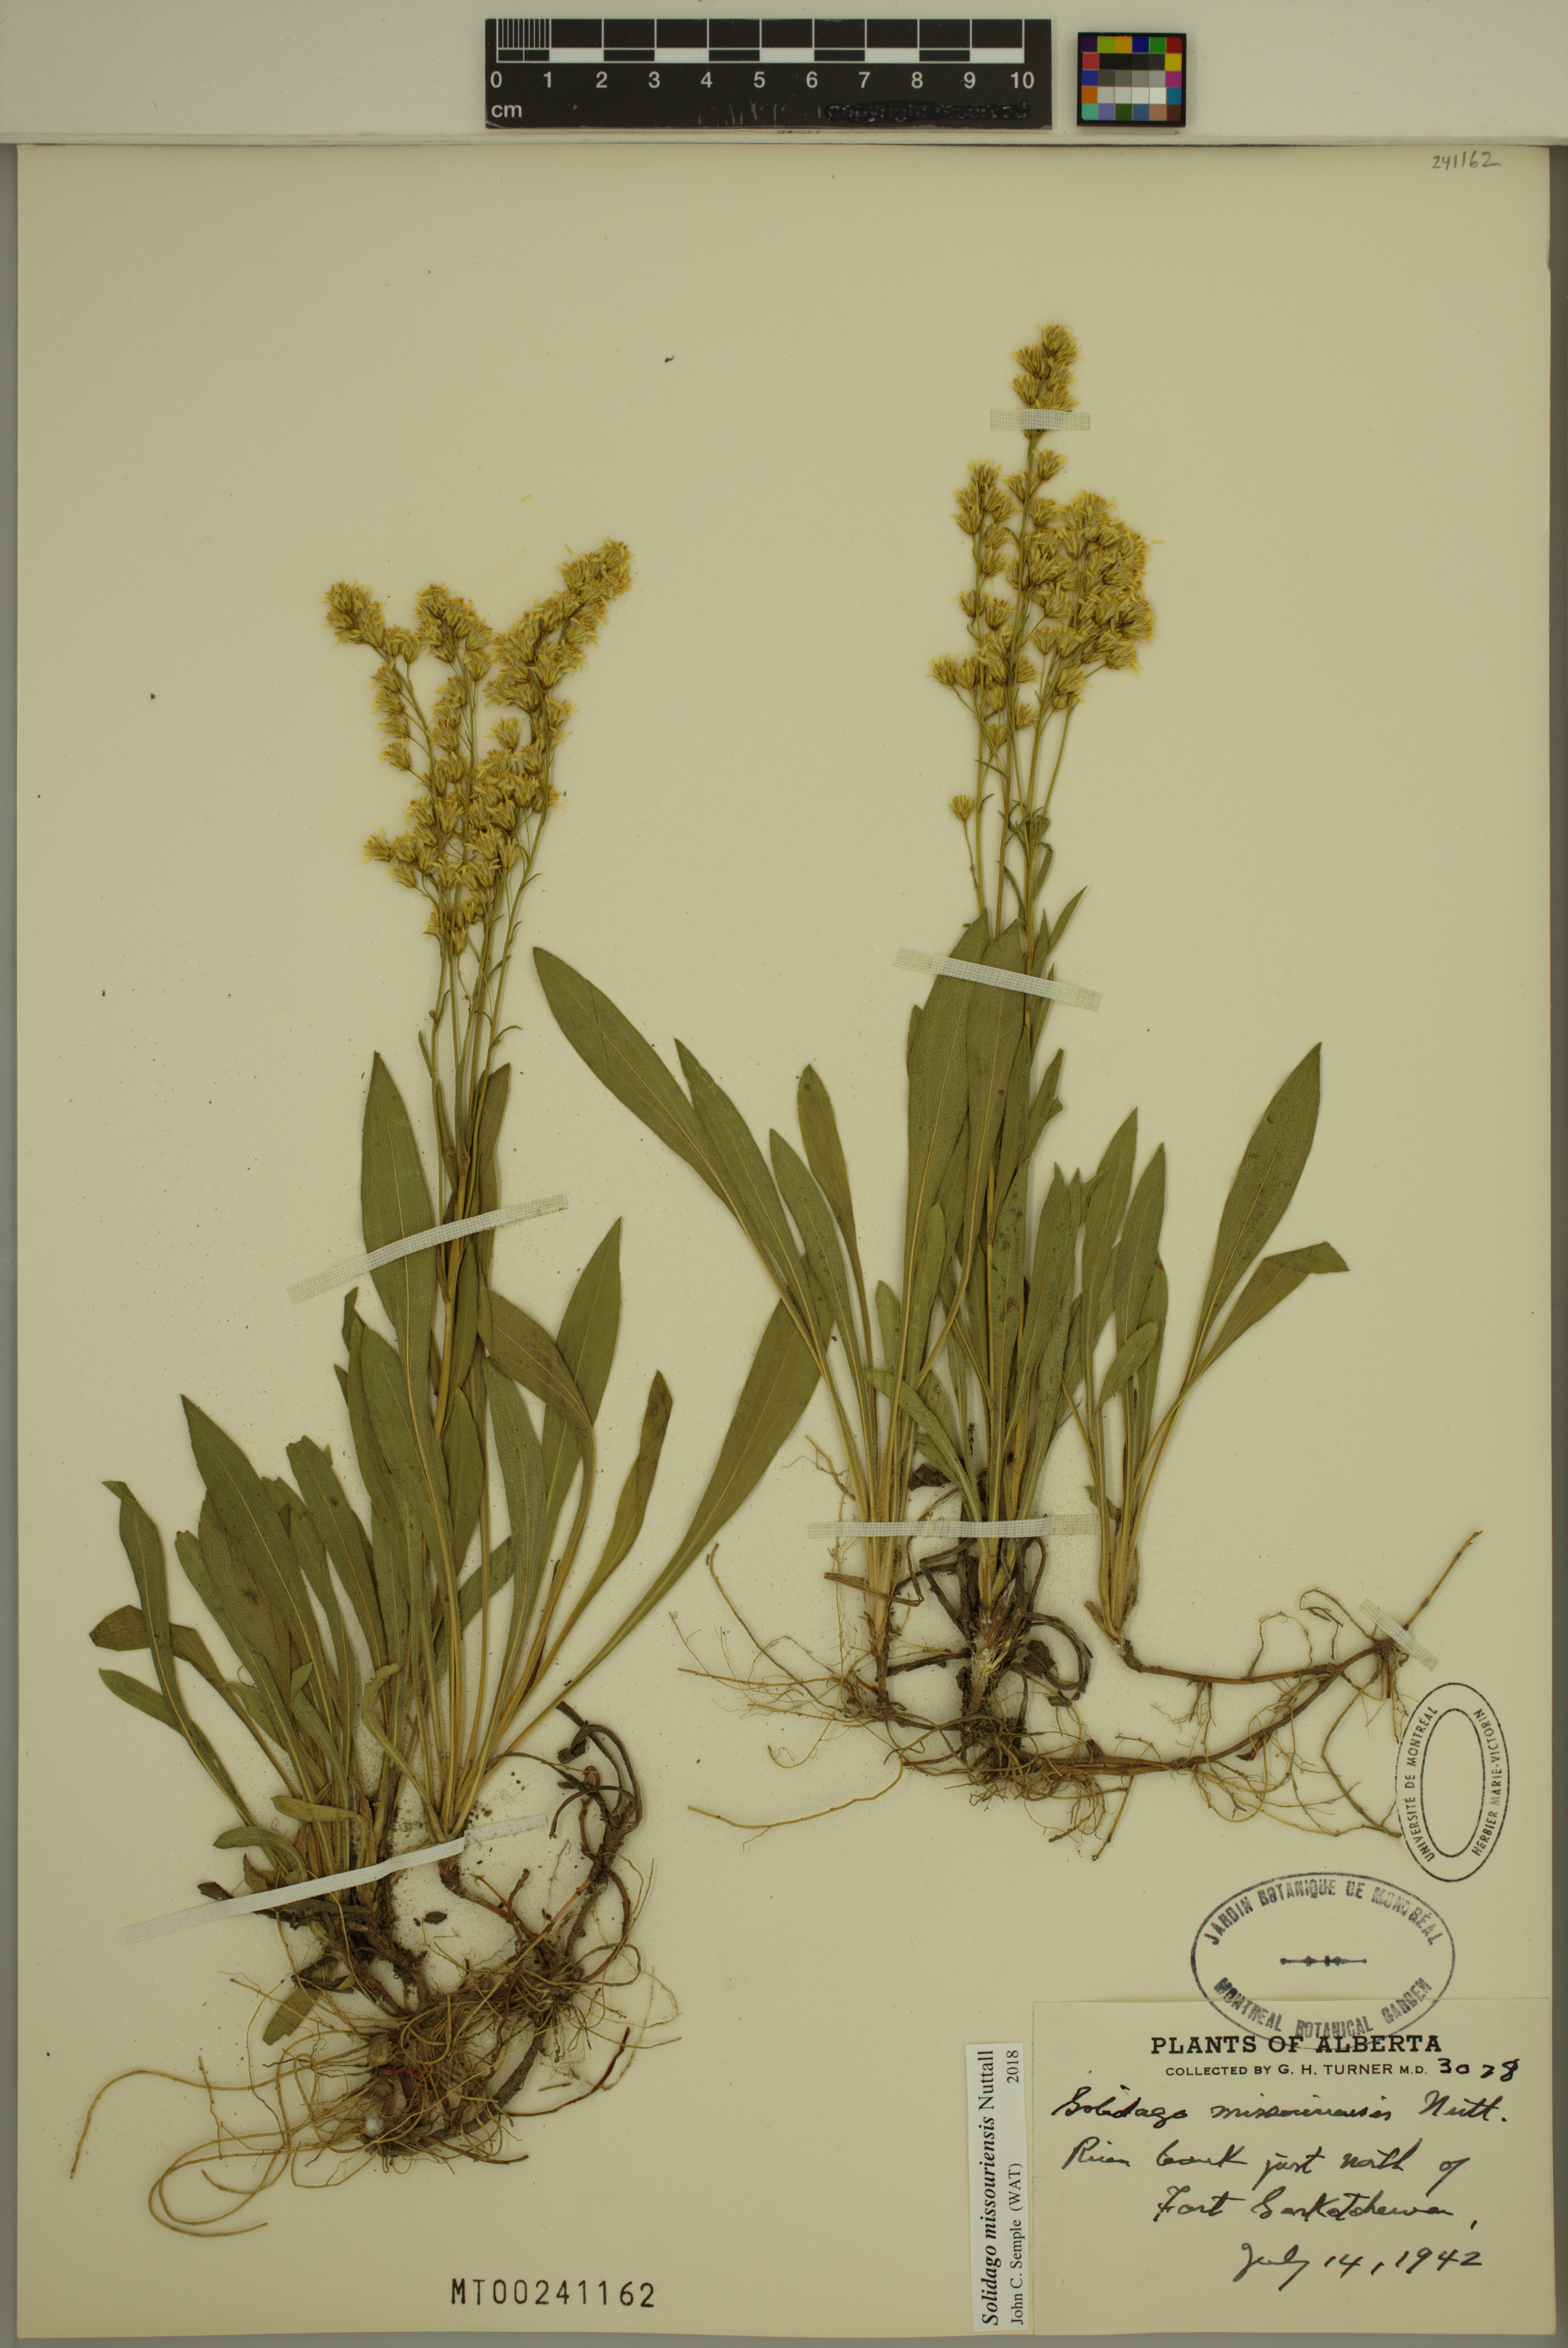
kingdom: Plantae
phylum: Tracheophyta
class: Magnoliopsida
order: Asterales
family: Asteraceae
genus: Solidago
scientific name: Solidago missouriensis
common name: Prairie goldenrod
